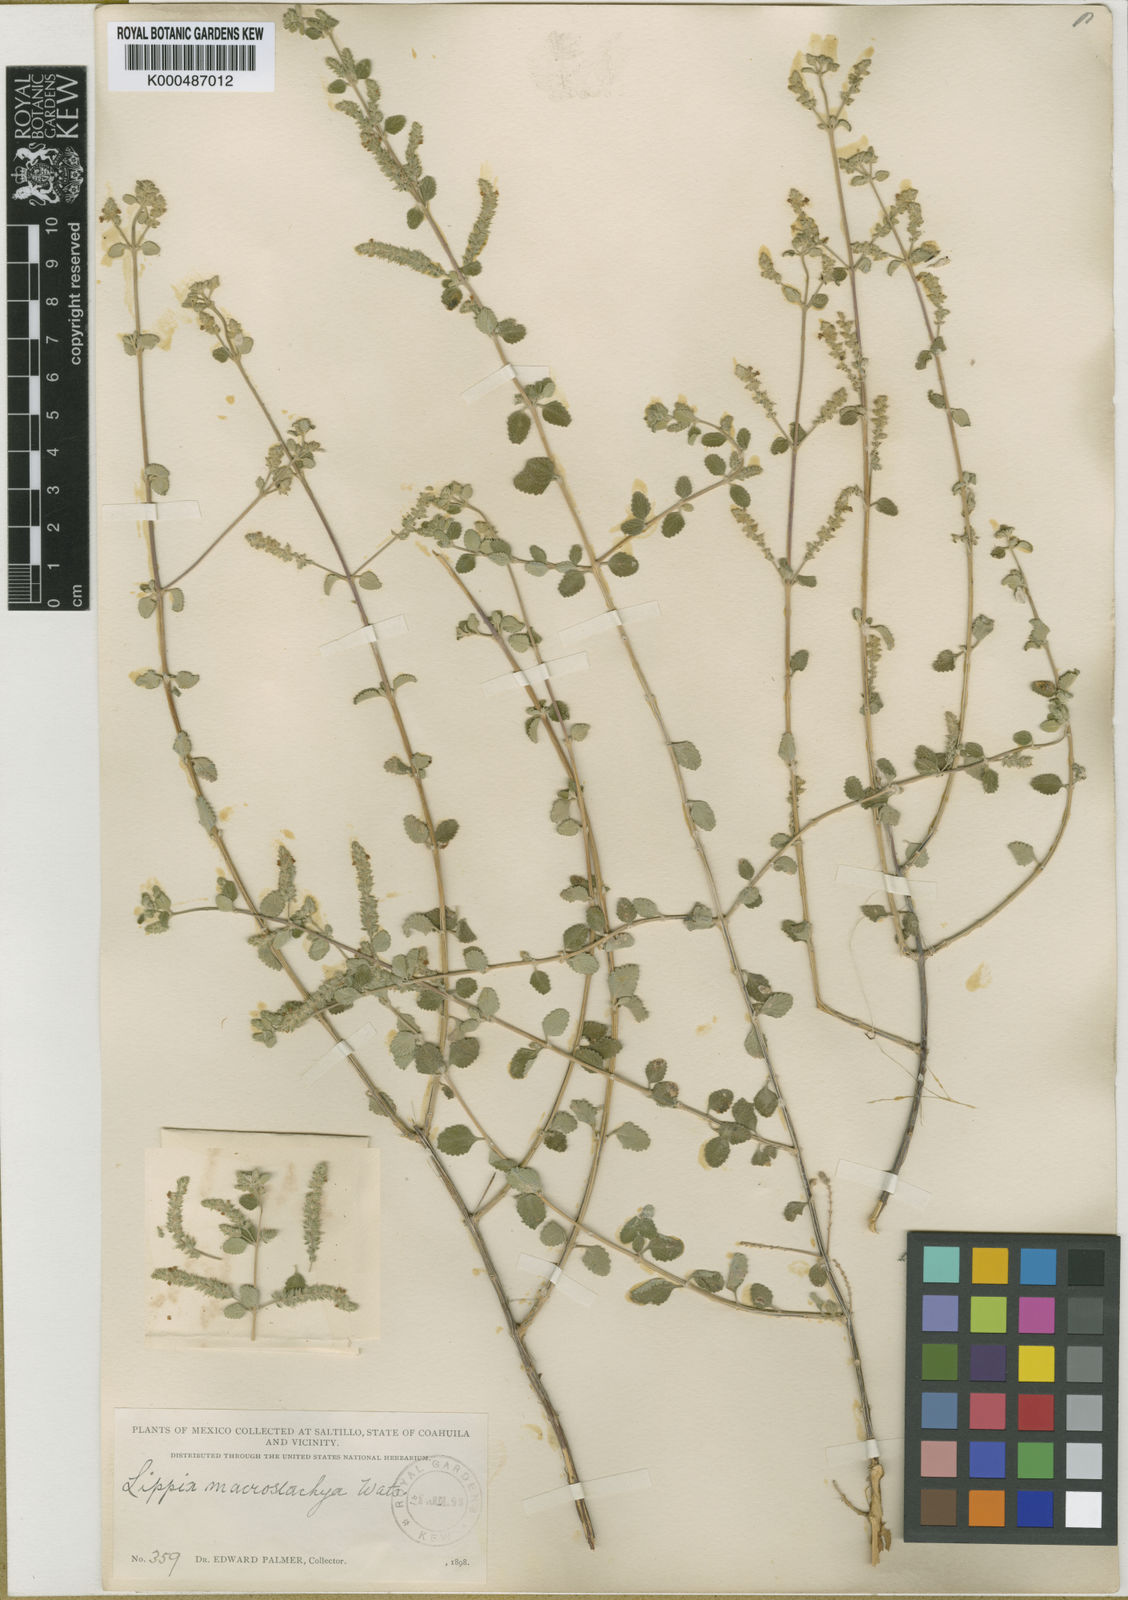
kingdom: Plantae
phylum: Tracheophyta
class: Magnoliopsida
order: Lamiales
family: Verbenaceae
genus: Aloysia
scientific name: Aloysia macrostachya
